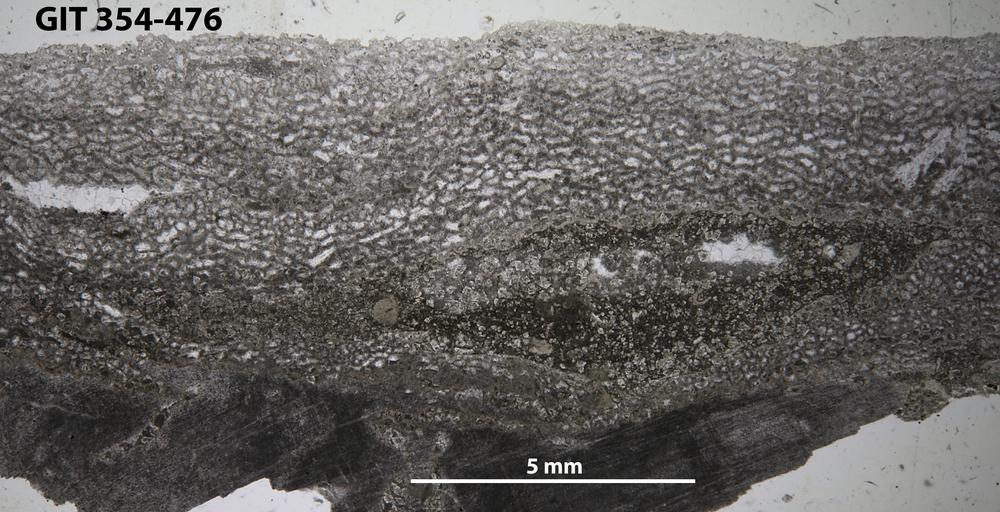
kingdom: Animalia
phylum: Porifera
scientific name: Porifera
